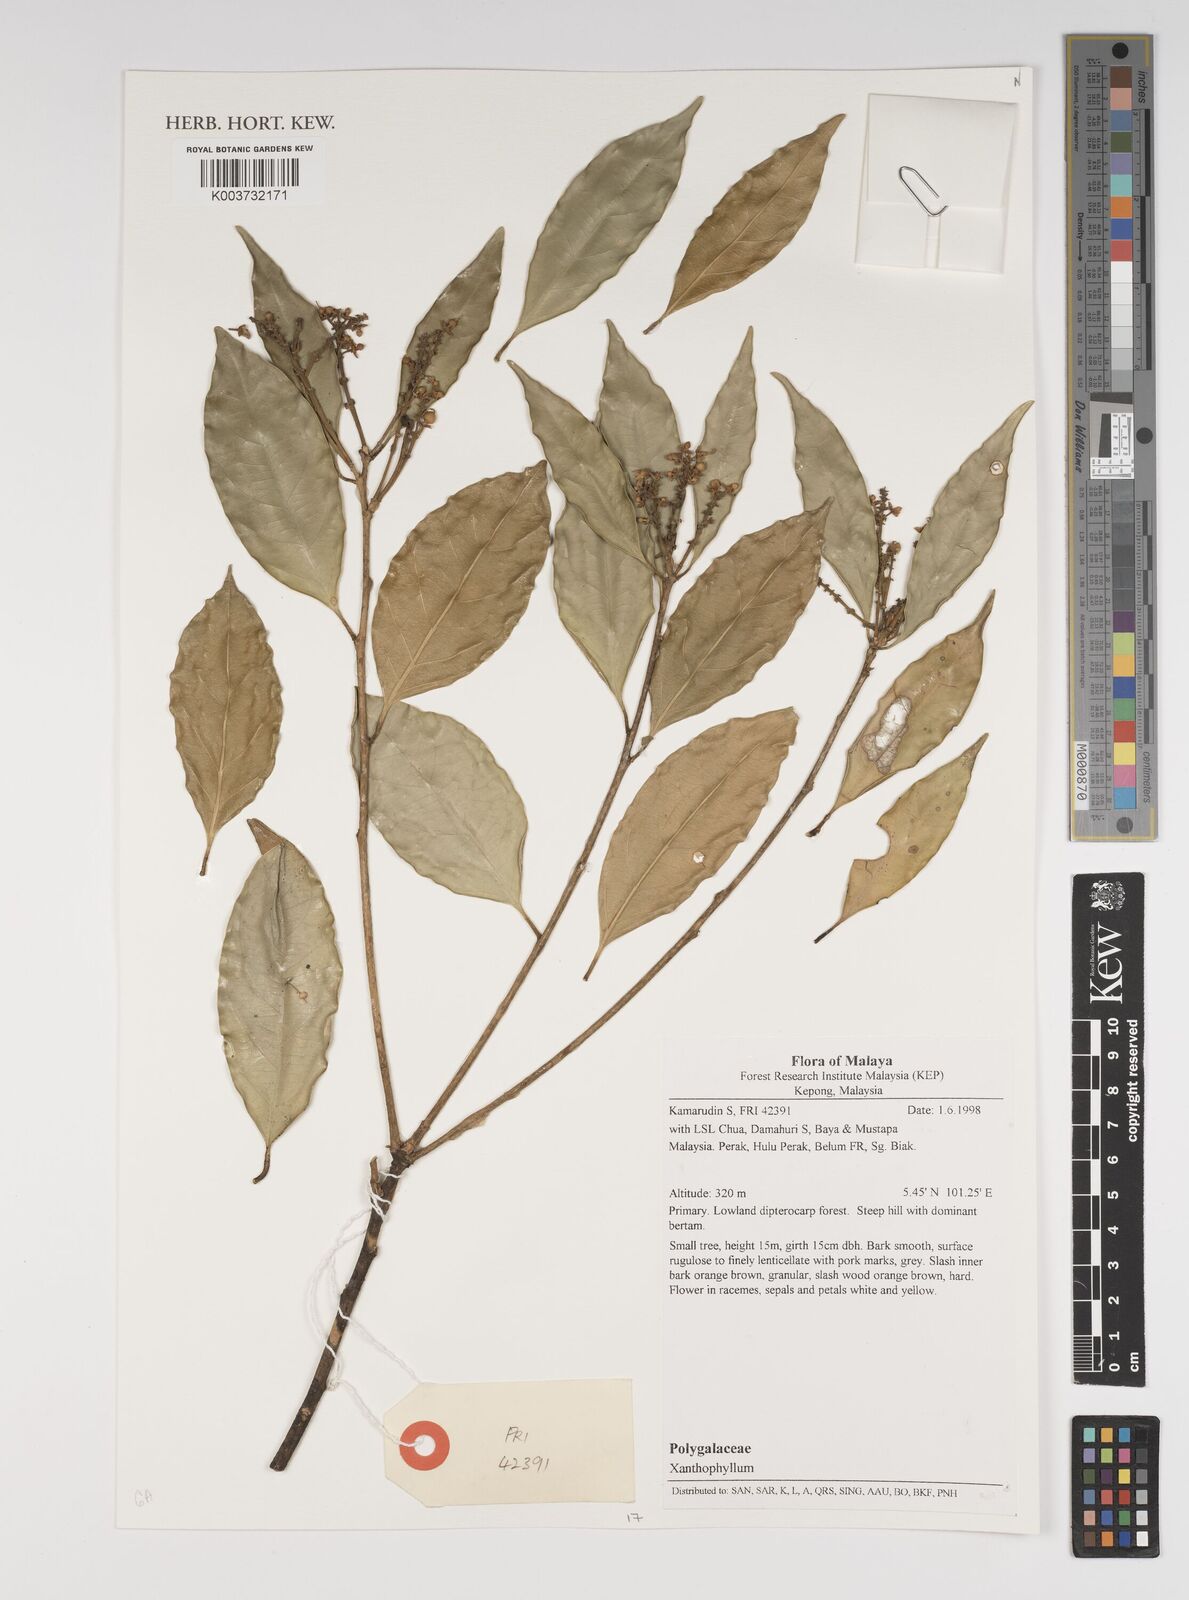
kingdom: Plantae
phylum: Tracheophyta
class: Magnoliopsida
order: Fabales
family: Polygalaceae
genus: Xanthophyllum
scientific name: Xanthophyllum
